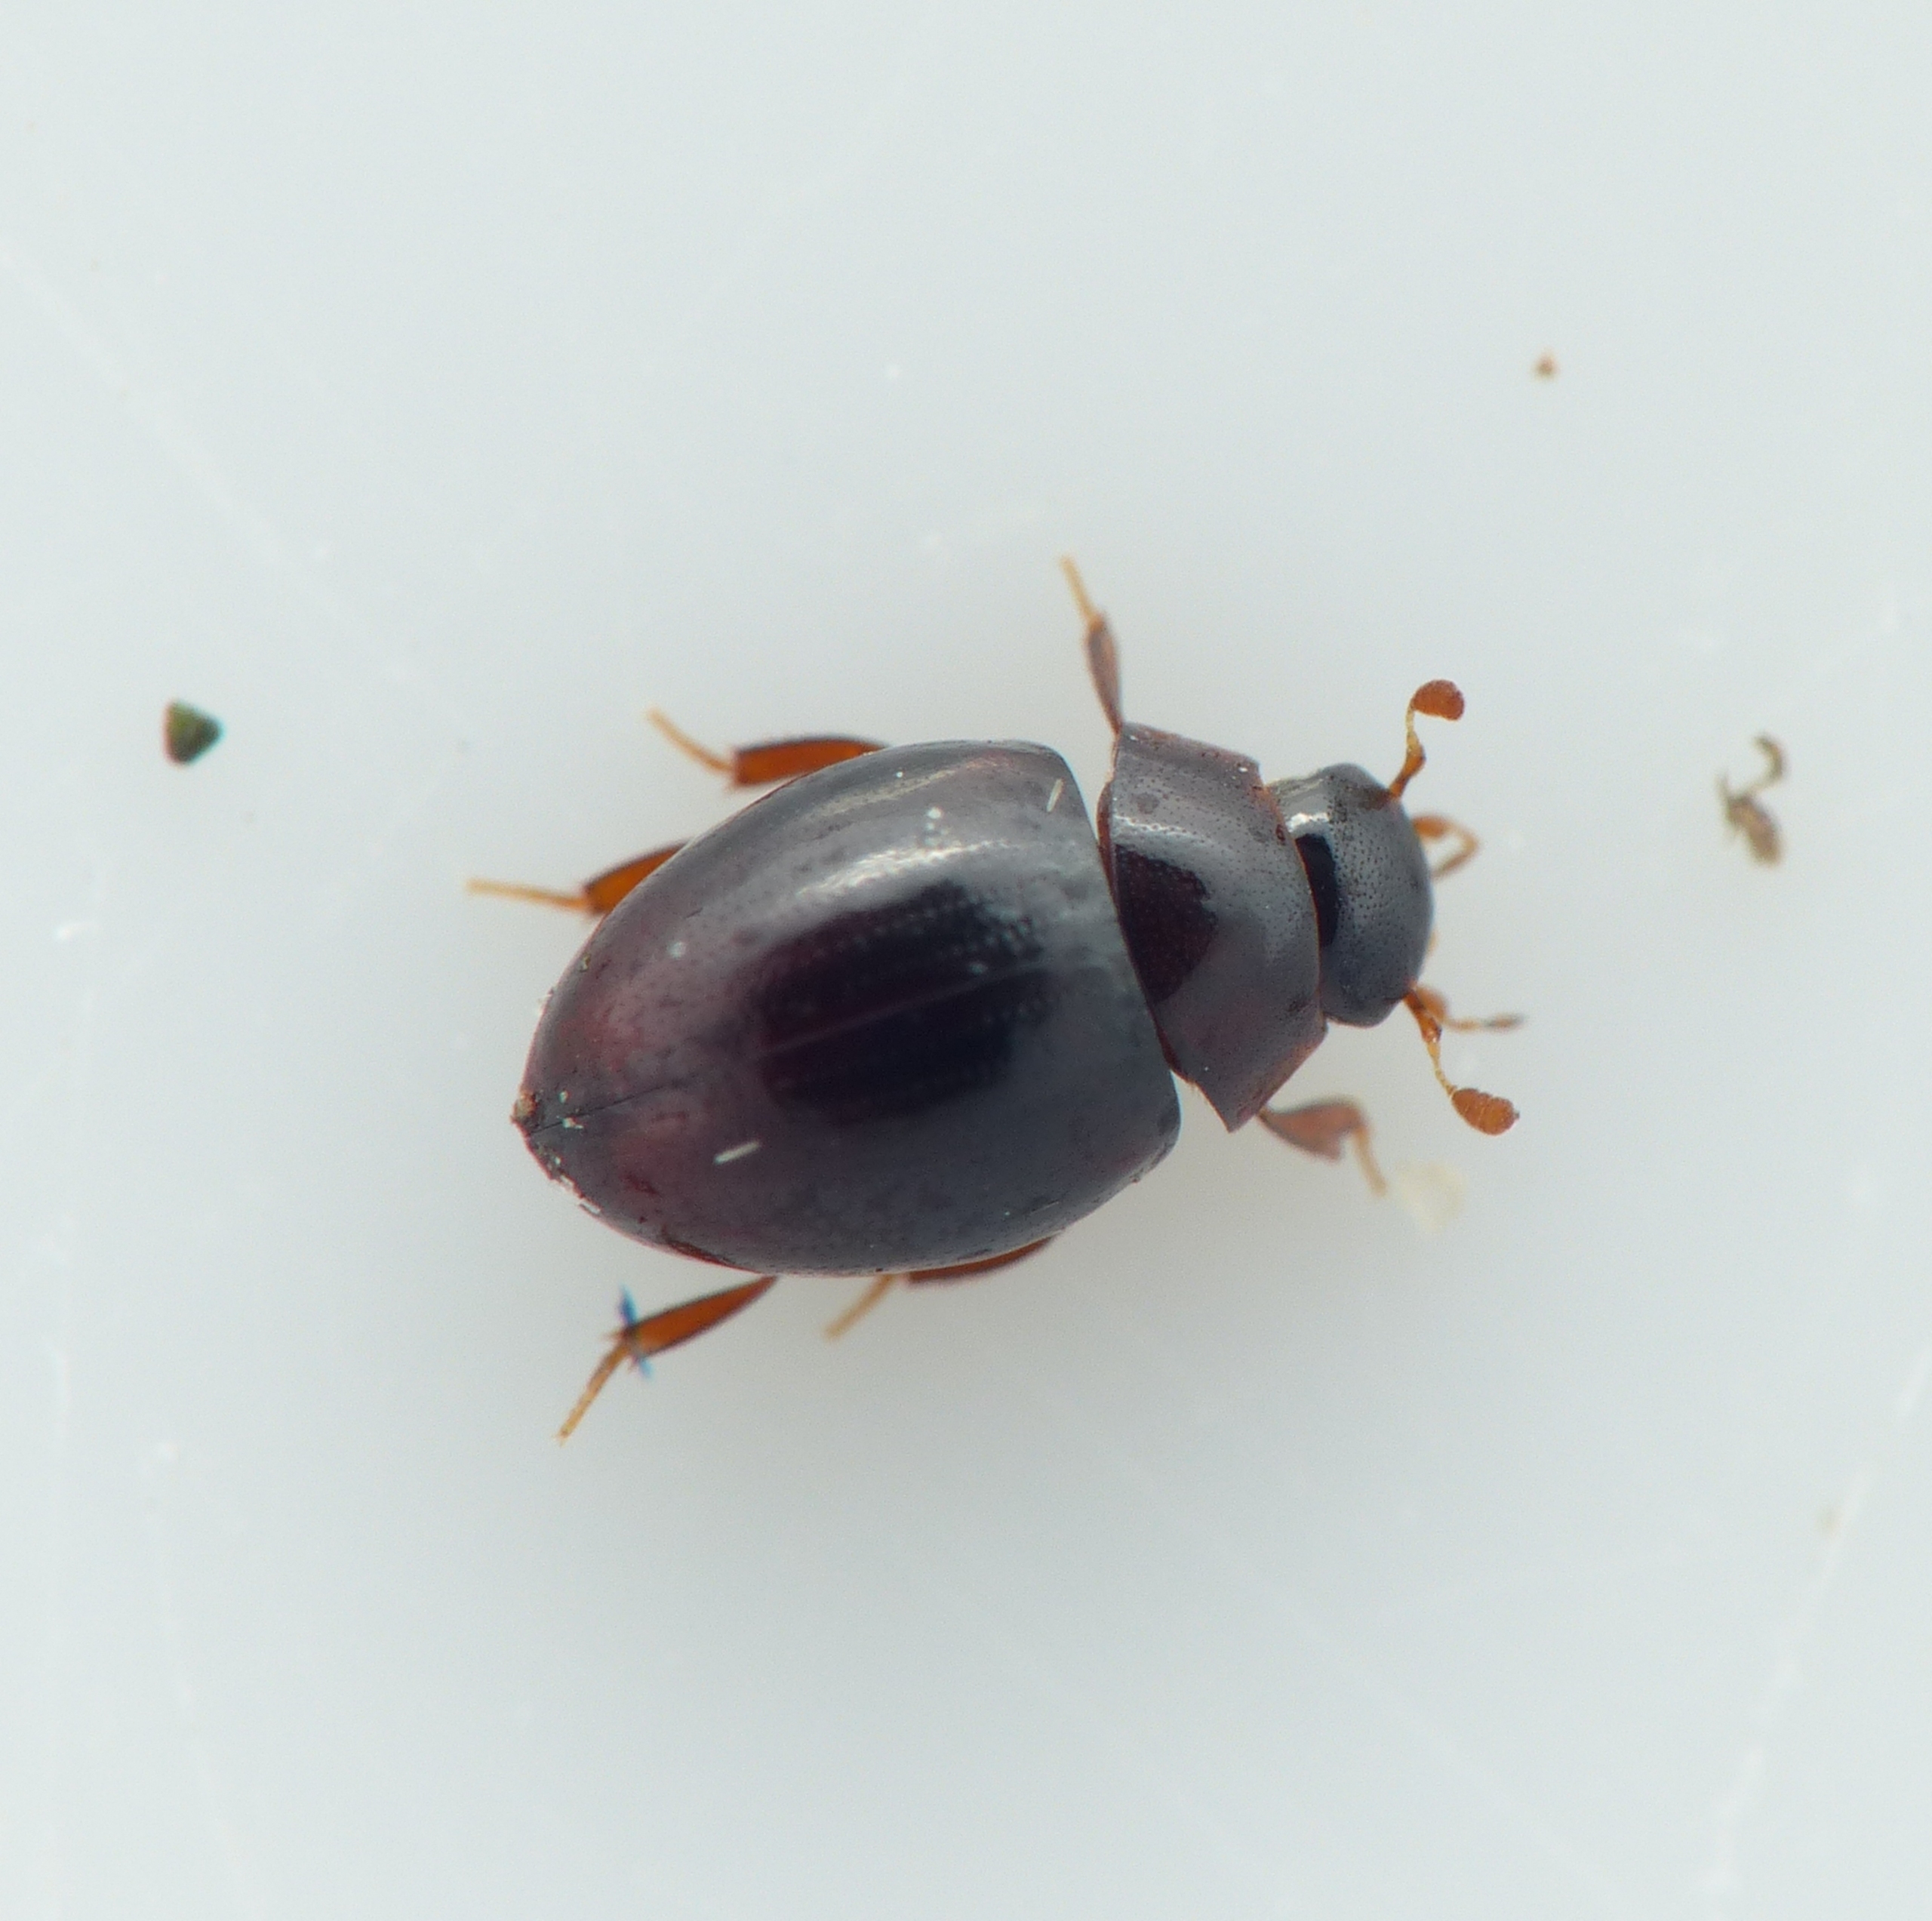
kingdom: Animalia
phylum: Arthropoda
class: Insecta
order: Coleoptera
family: Hydrophilidae
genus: Megasternum
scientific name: Megasternum concinnum
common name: Kompostkær
